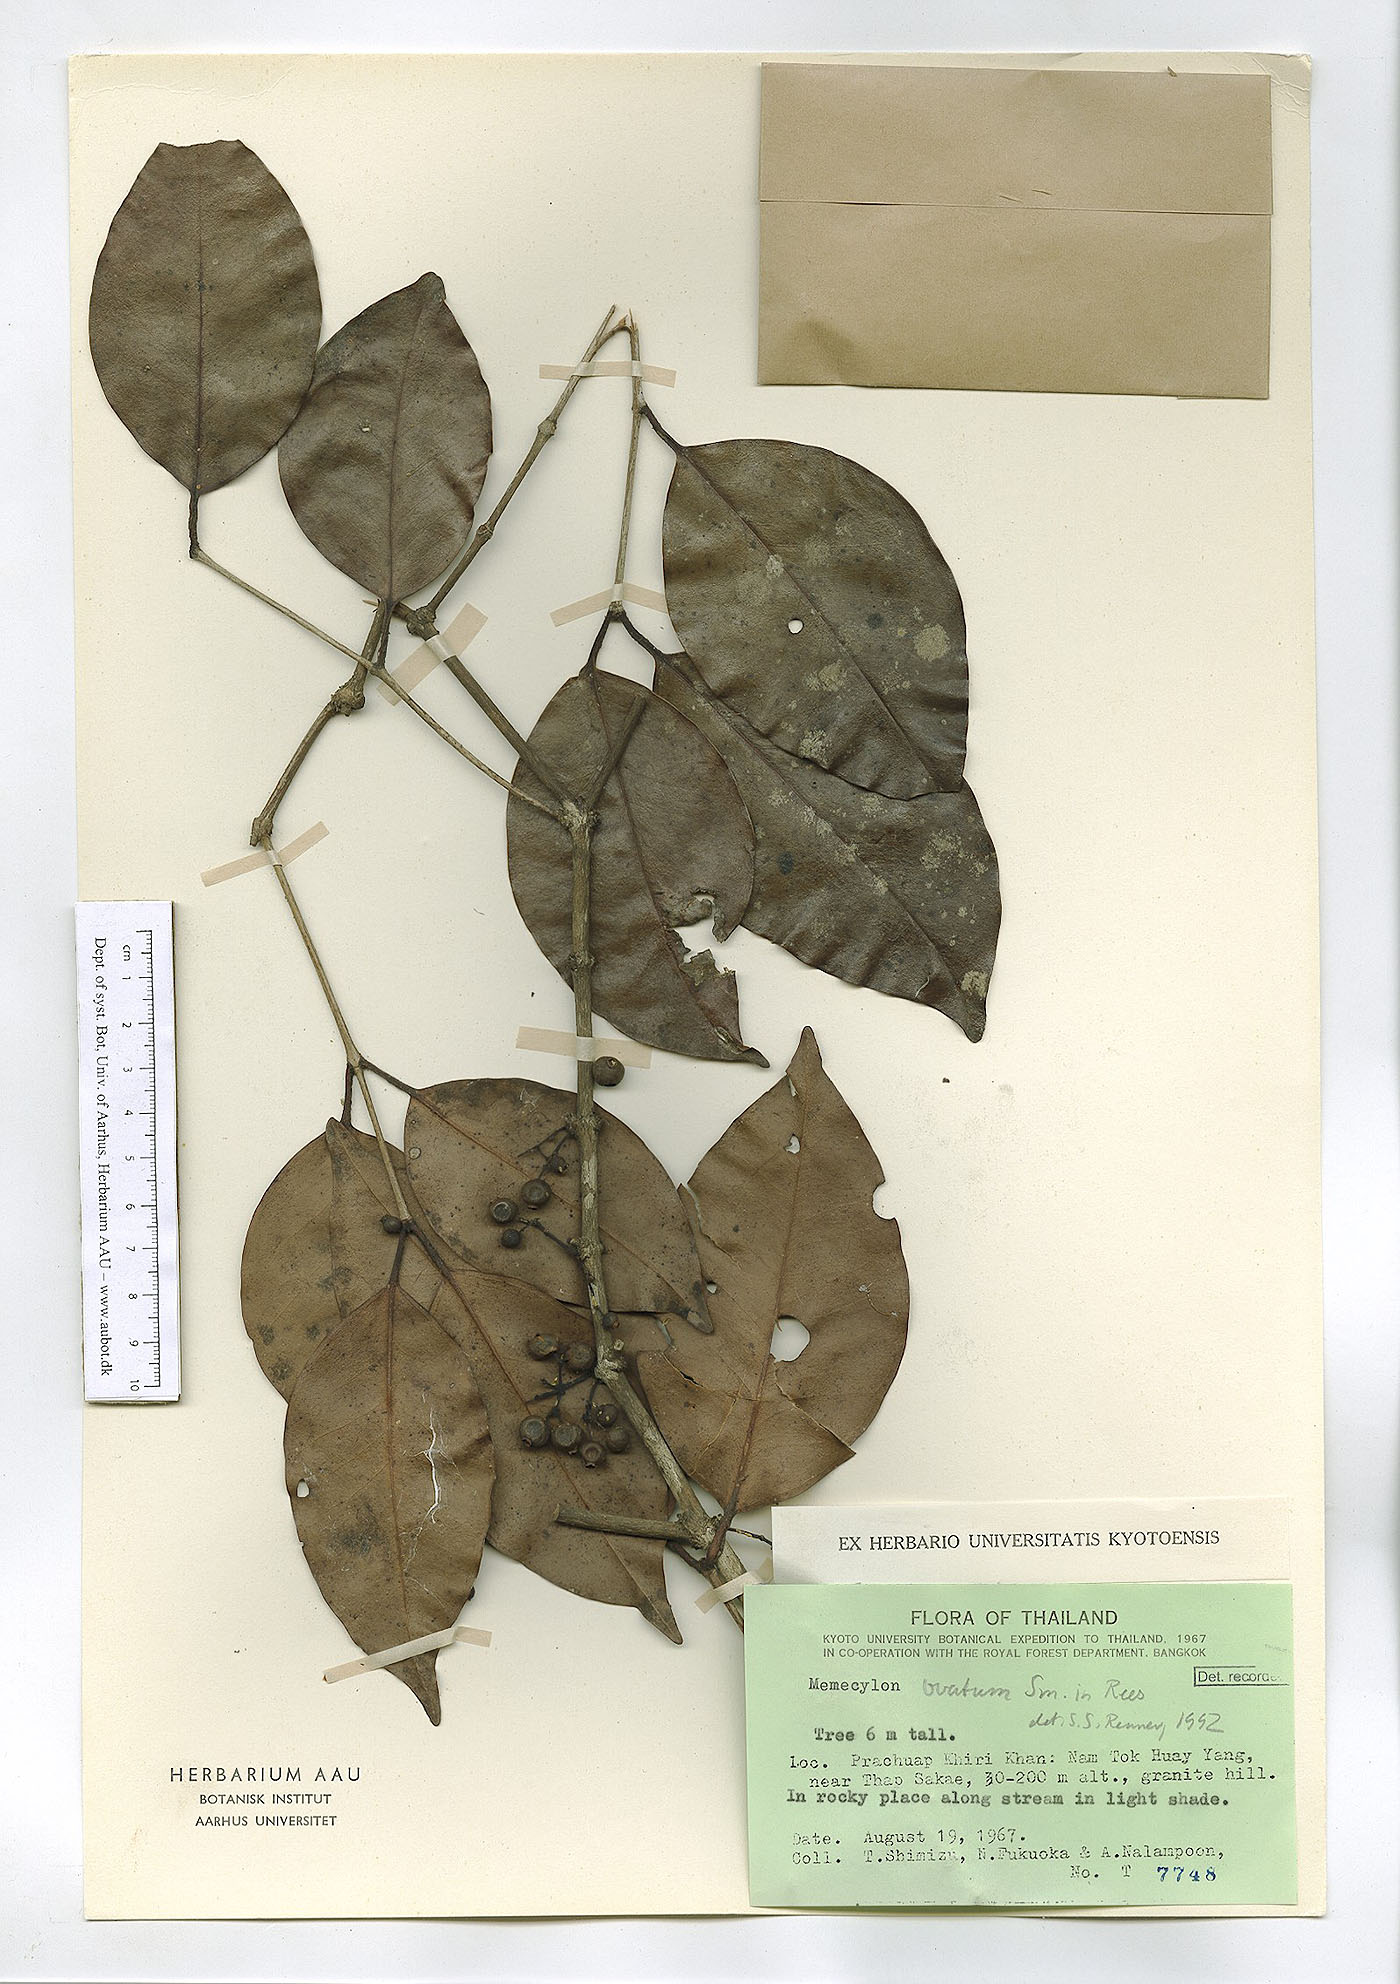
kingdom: Plantae
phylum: Tracheophyta
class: Magnoliopsida
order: Myrtales
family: Melastomataceae
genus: Memecylon
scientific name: Memecylon ovatum
